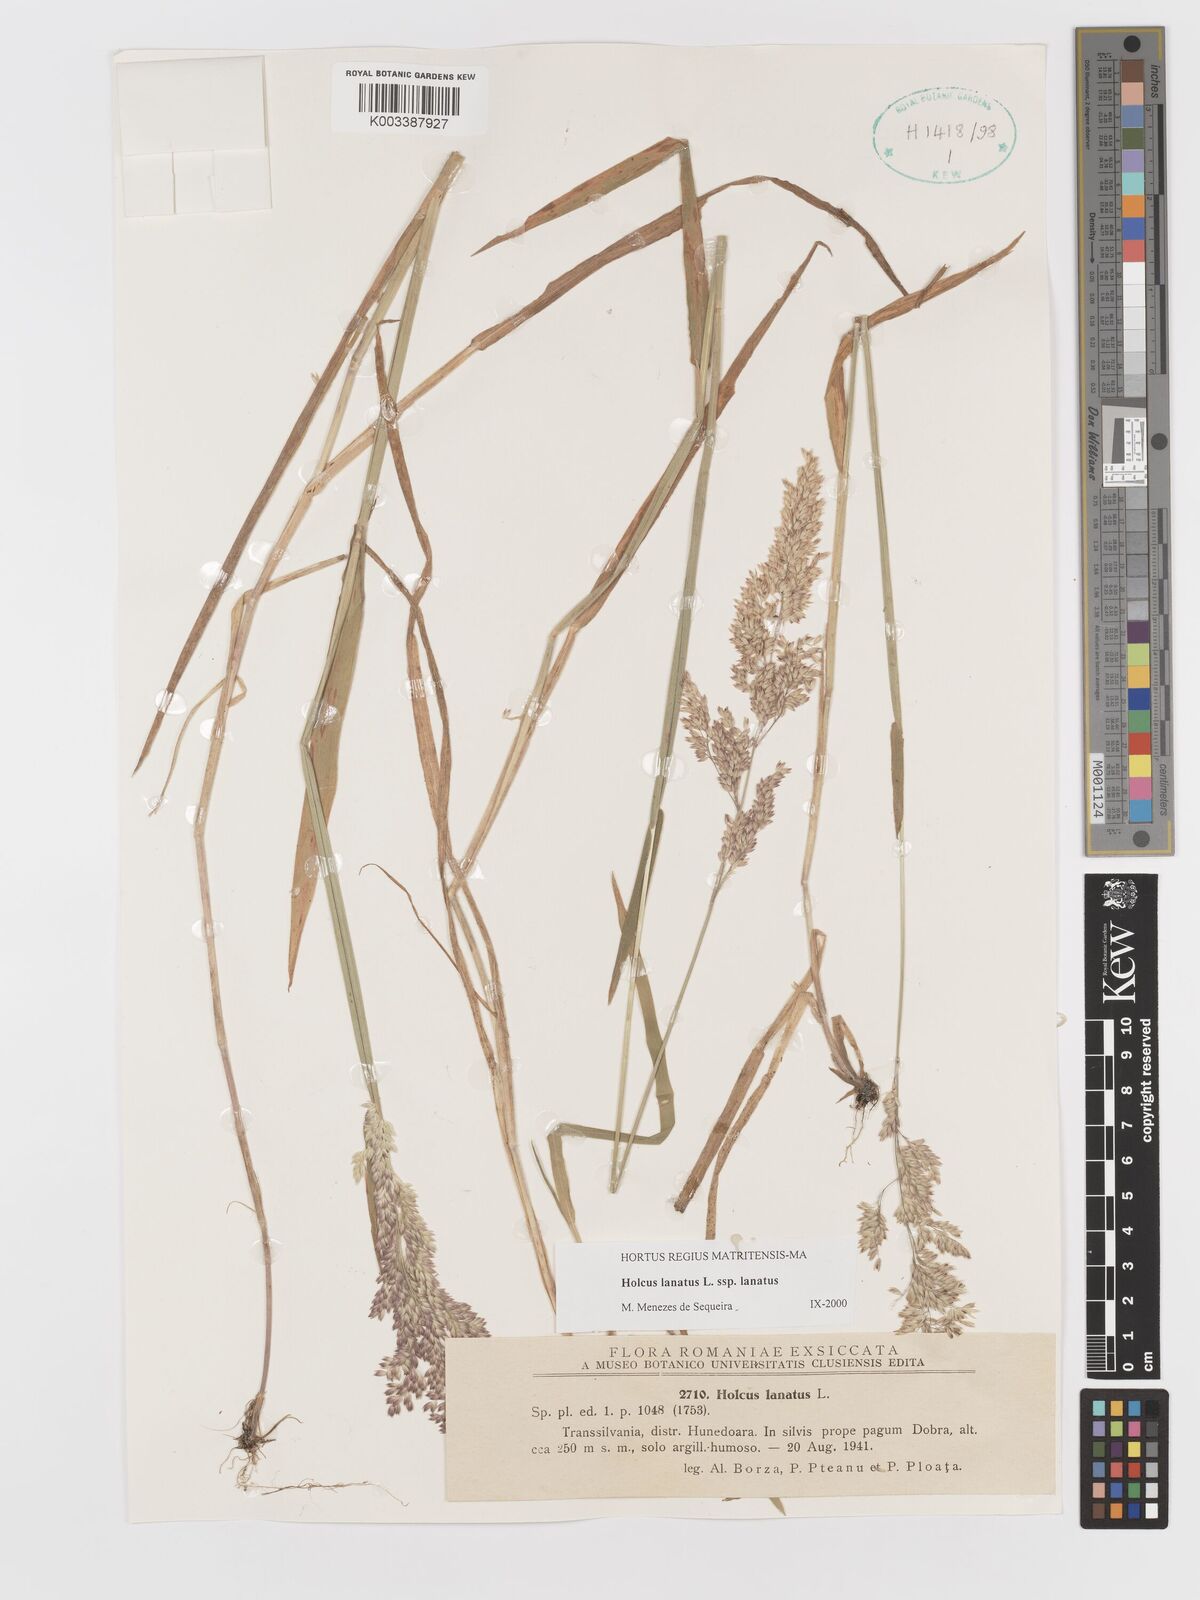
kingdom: Plantae
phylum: Tracheophyta
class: Liliopsida
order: Poales
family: Poaceae
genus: Holcus
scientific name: Holcus lanatus
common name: Yorkshire-fog
